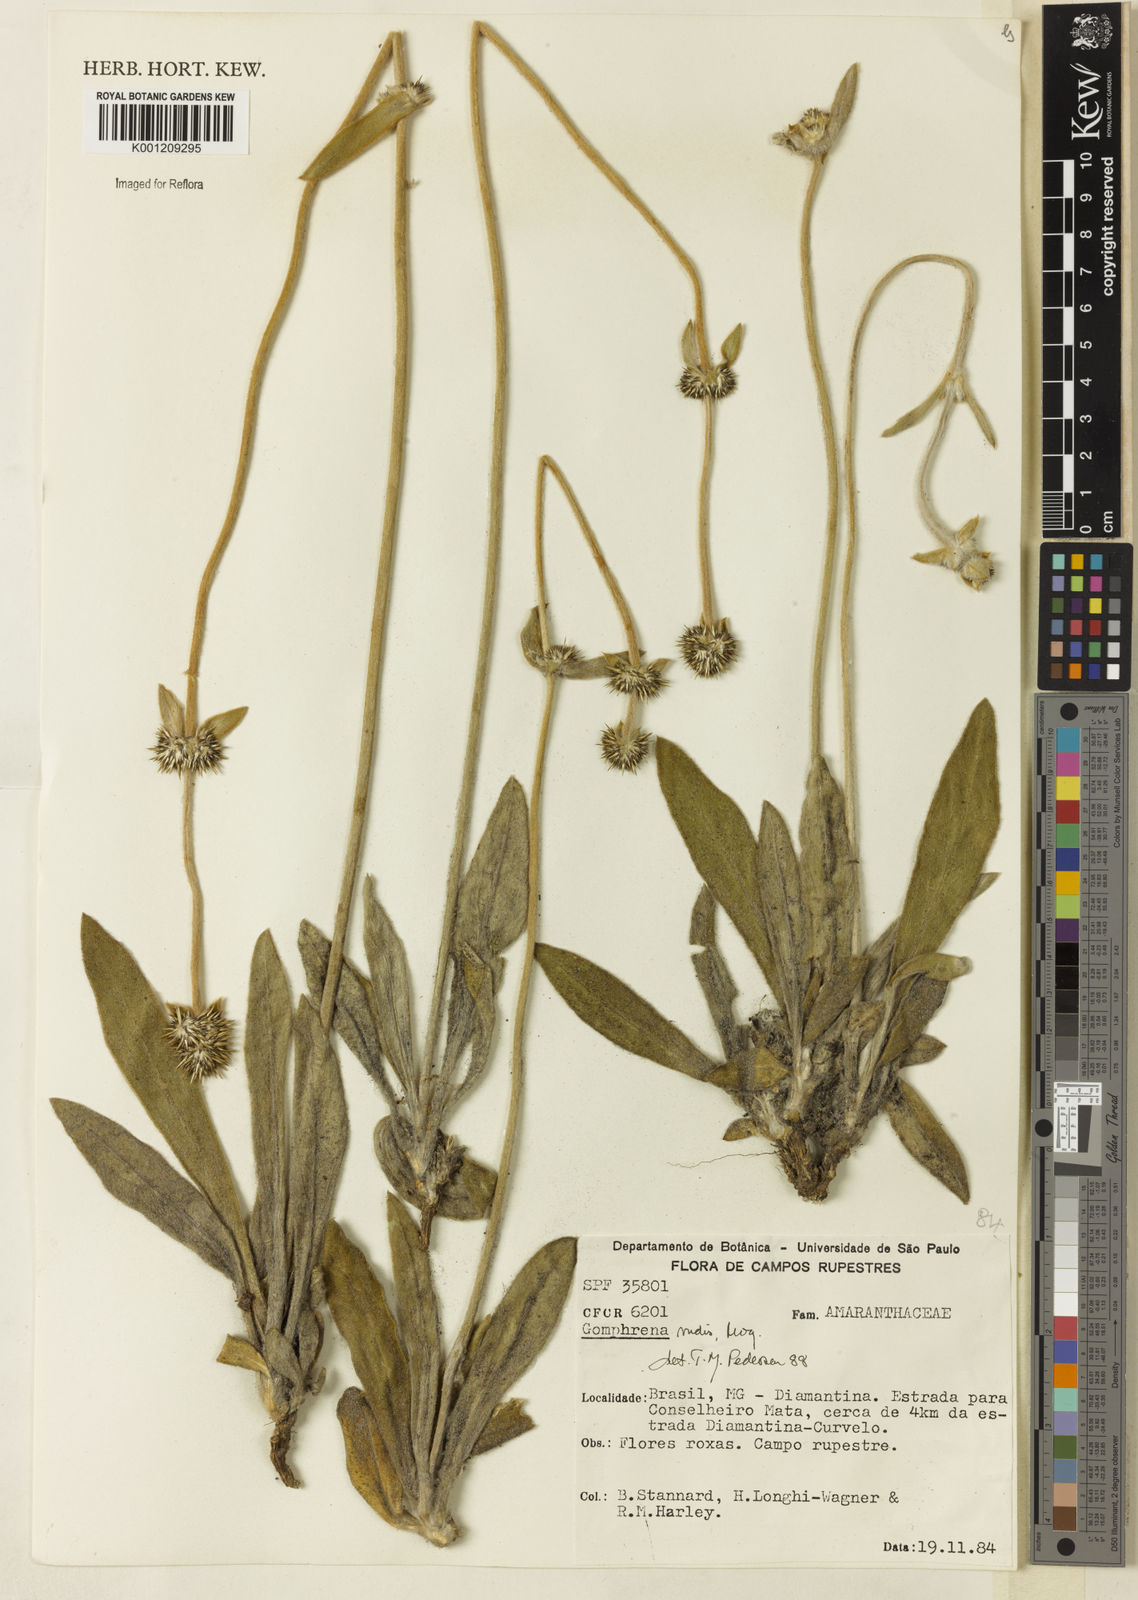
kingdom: Plantae
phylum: Tracheophyta
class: Magnoliopsida
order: Caryophyllales
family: Amaranthaceae
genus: Gomphrena
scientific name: Gomphrena rudis
